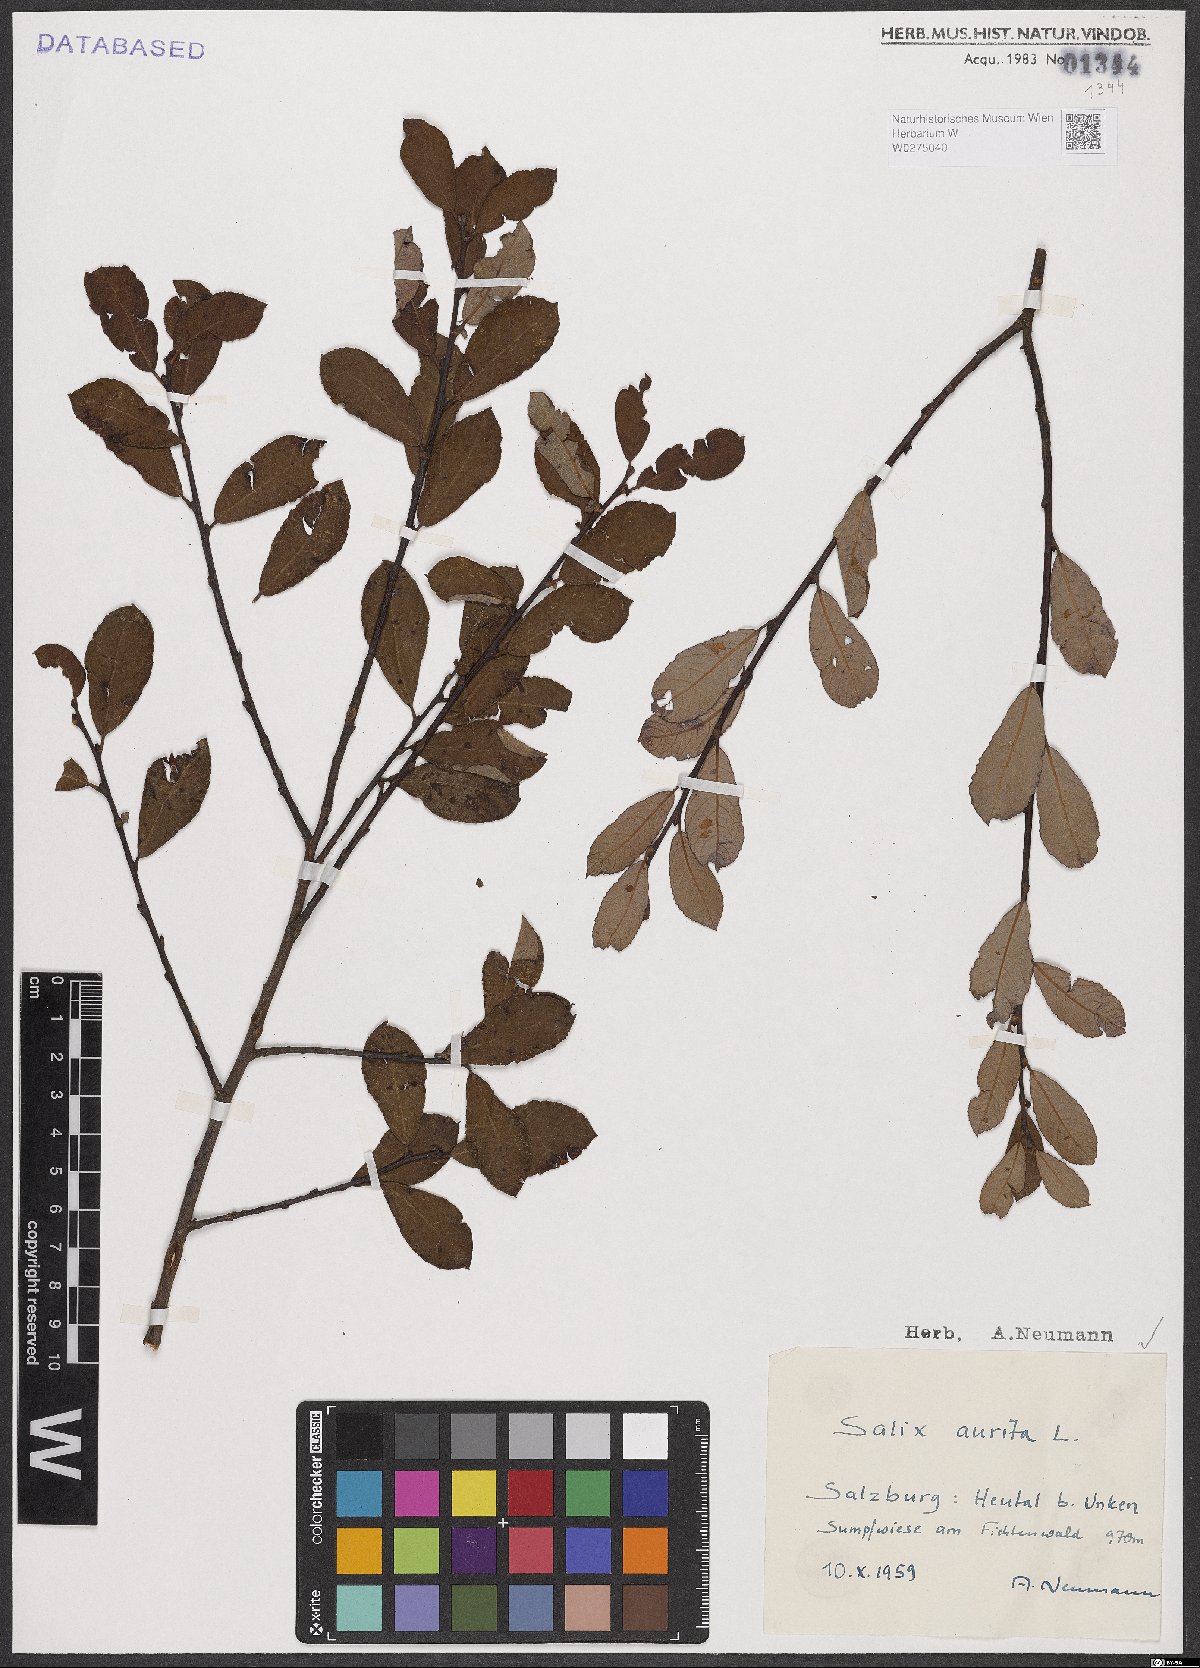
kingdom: Plantae
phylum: Tracheophyta
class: Magnoliopsida
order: Malpighiales
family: Salicaceae
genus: Salix
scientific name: Salix aurita
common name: Eared willow
